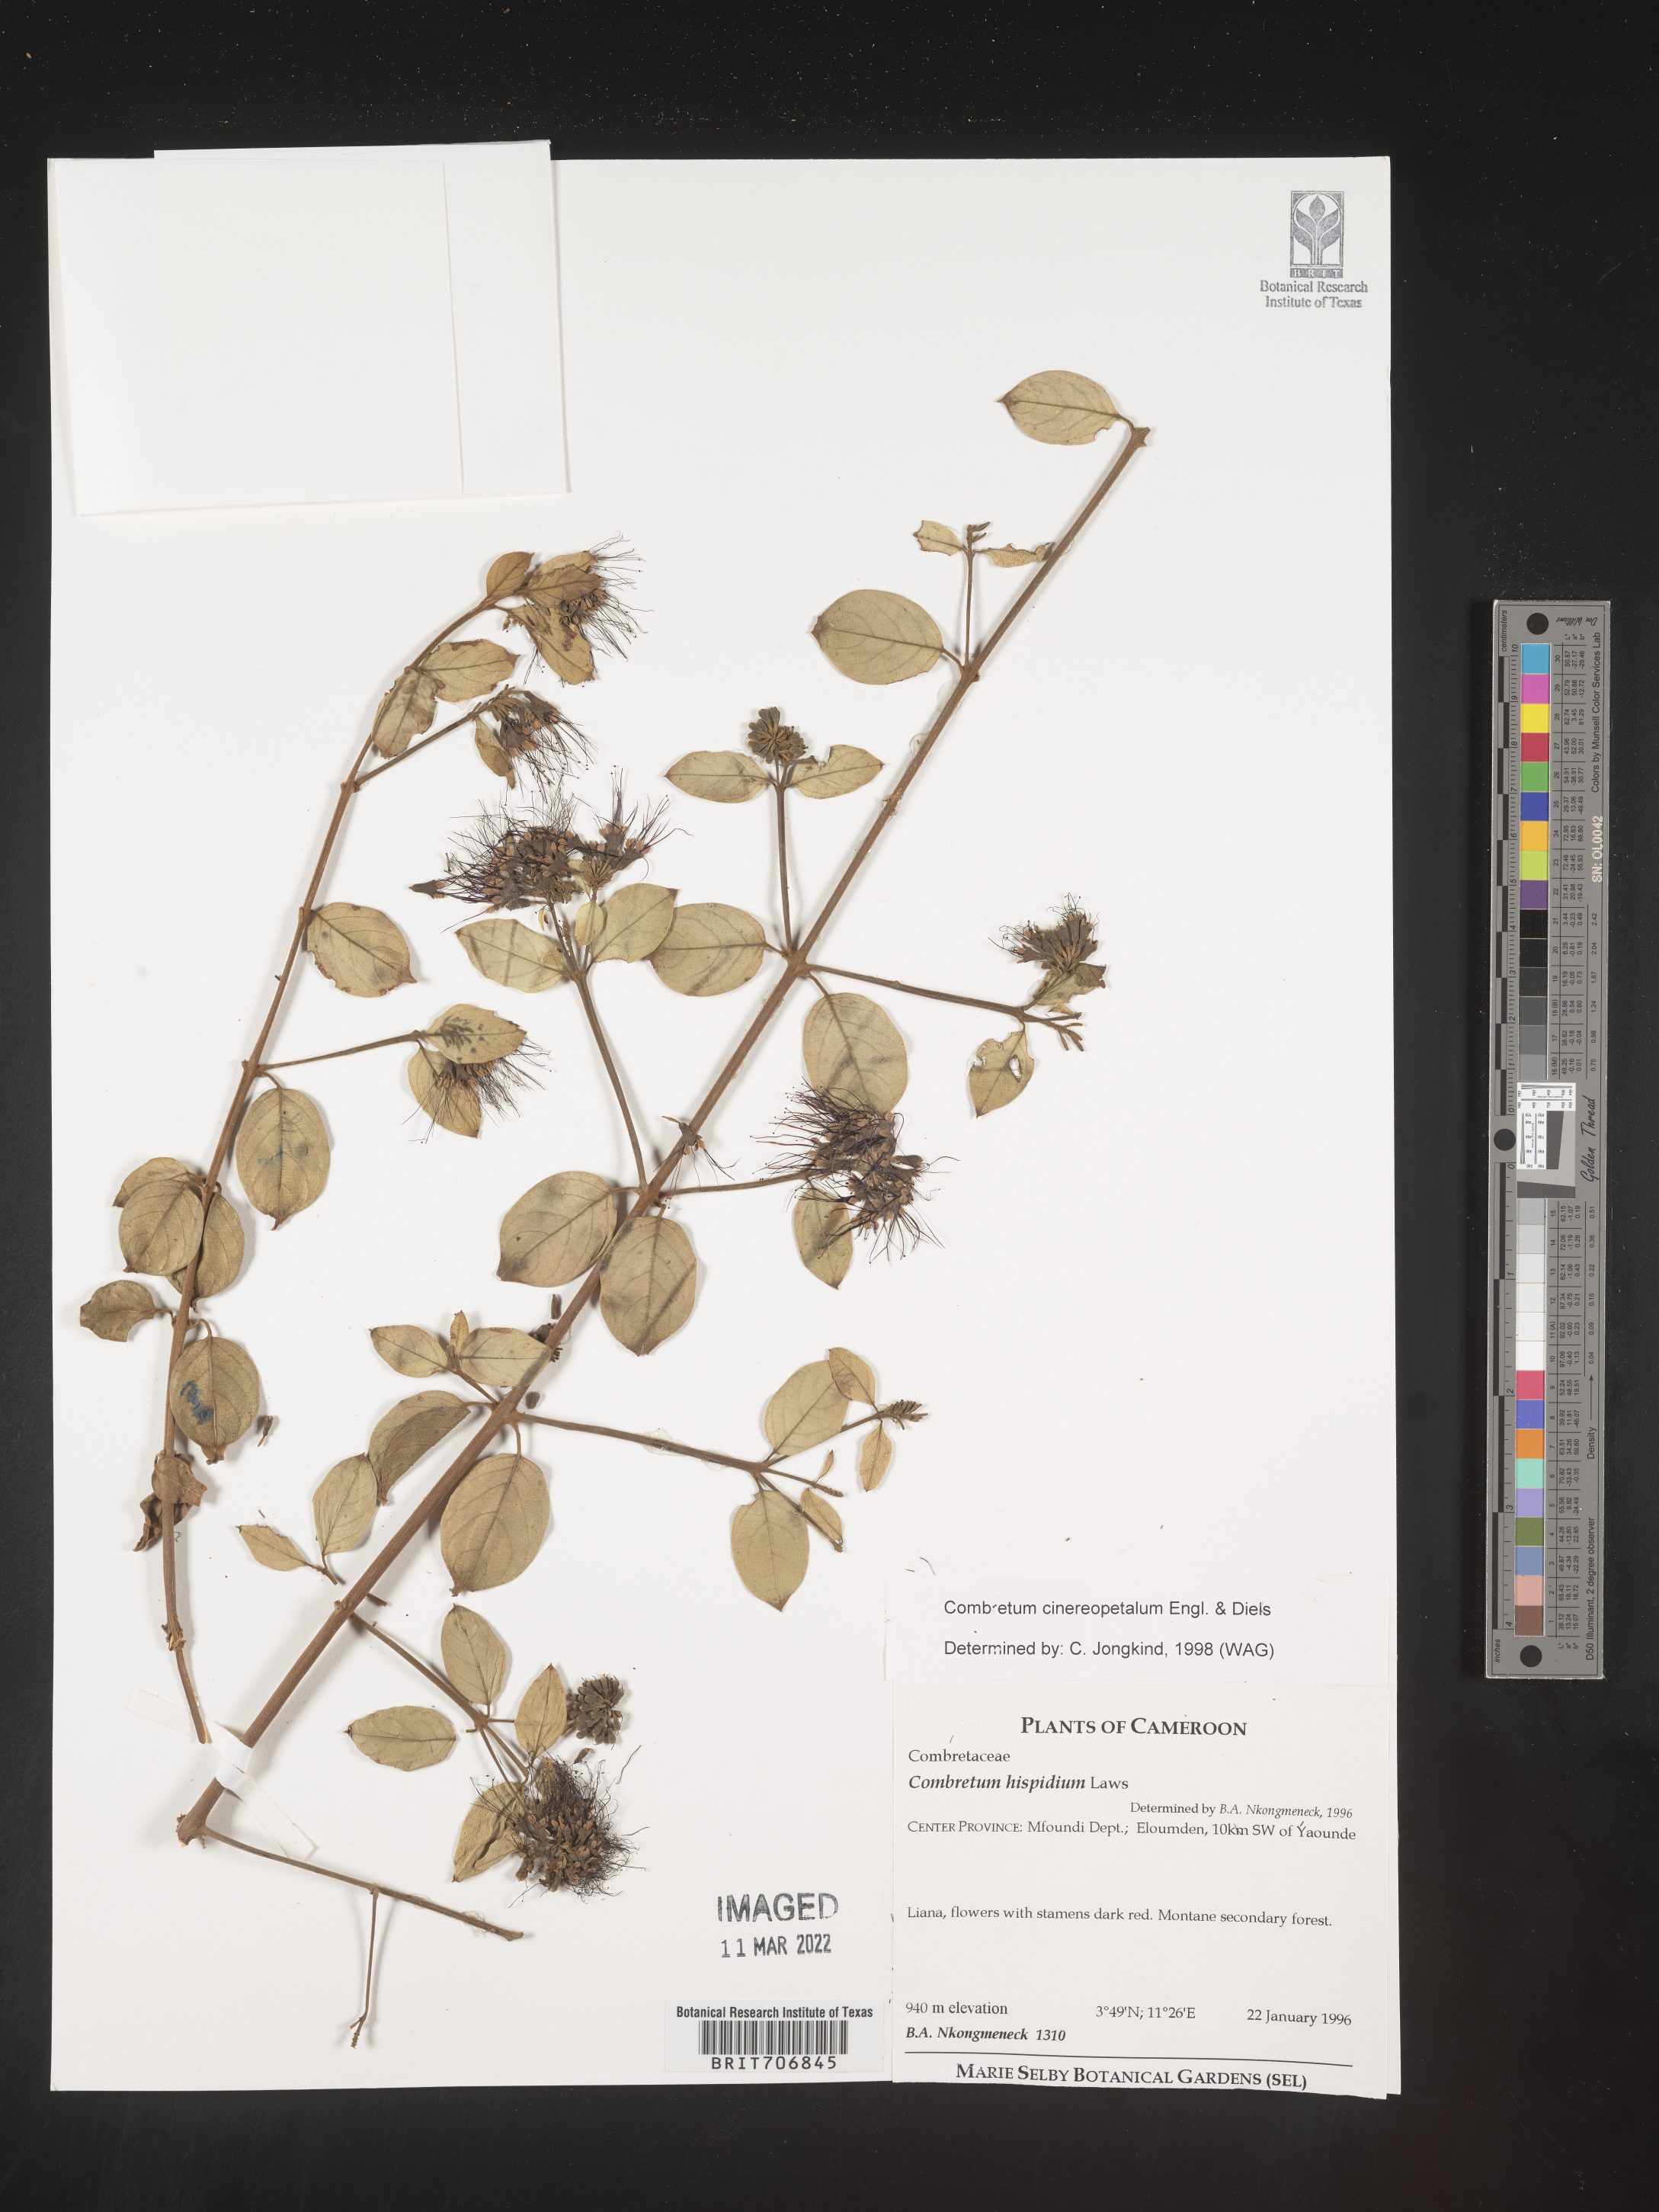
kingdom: Plantae
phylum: Tracheophyta
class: Magnoliopsida
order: Myrtales
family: Combretaceae
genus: Combretum
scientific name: Combretum
